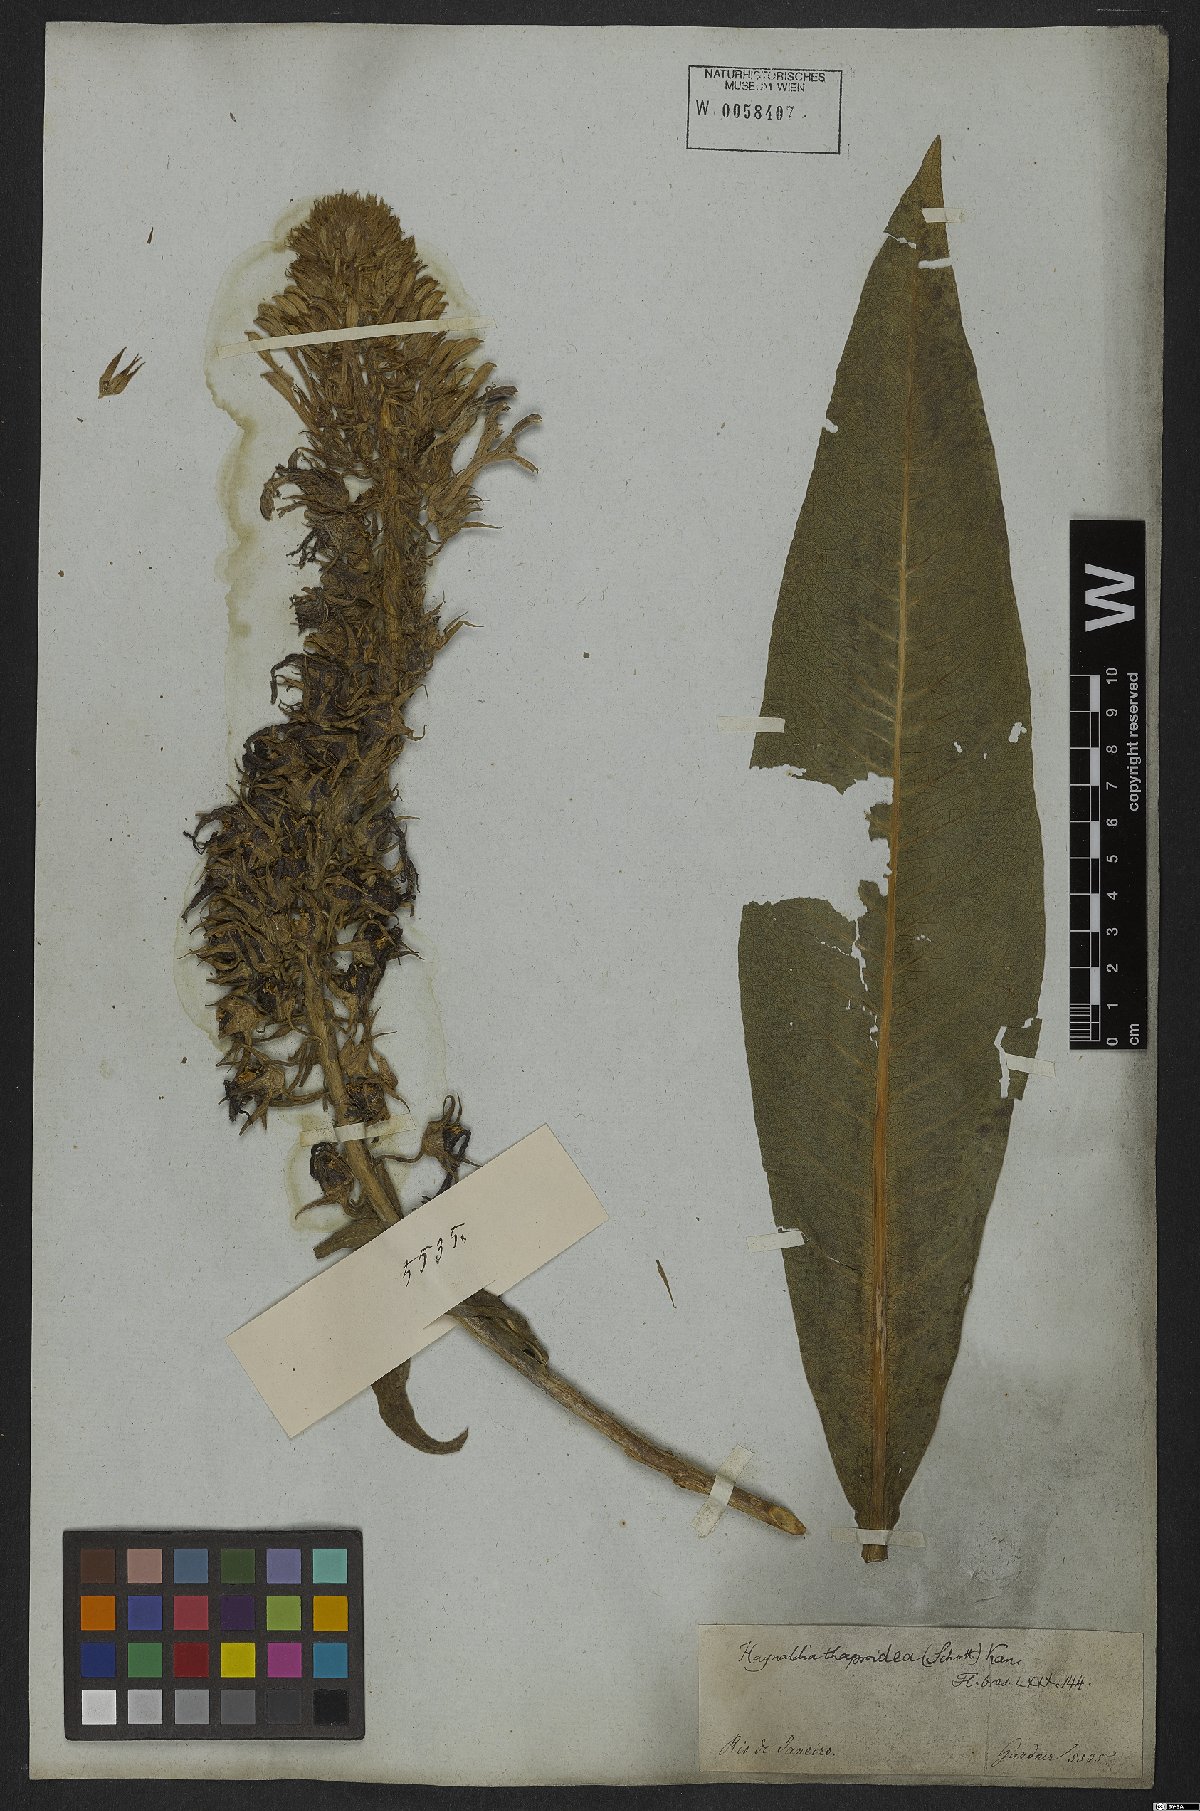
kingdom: Plantae
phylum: Tracheophyta
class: Magnoliopsida
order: Asterales
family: Campanulaceae
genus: Lobelia
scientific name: Lobelia thapsoidea
